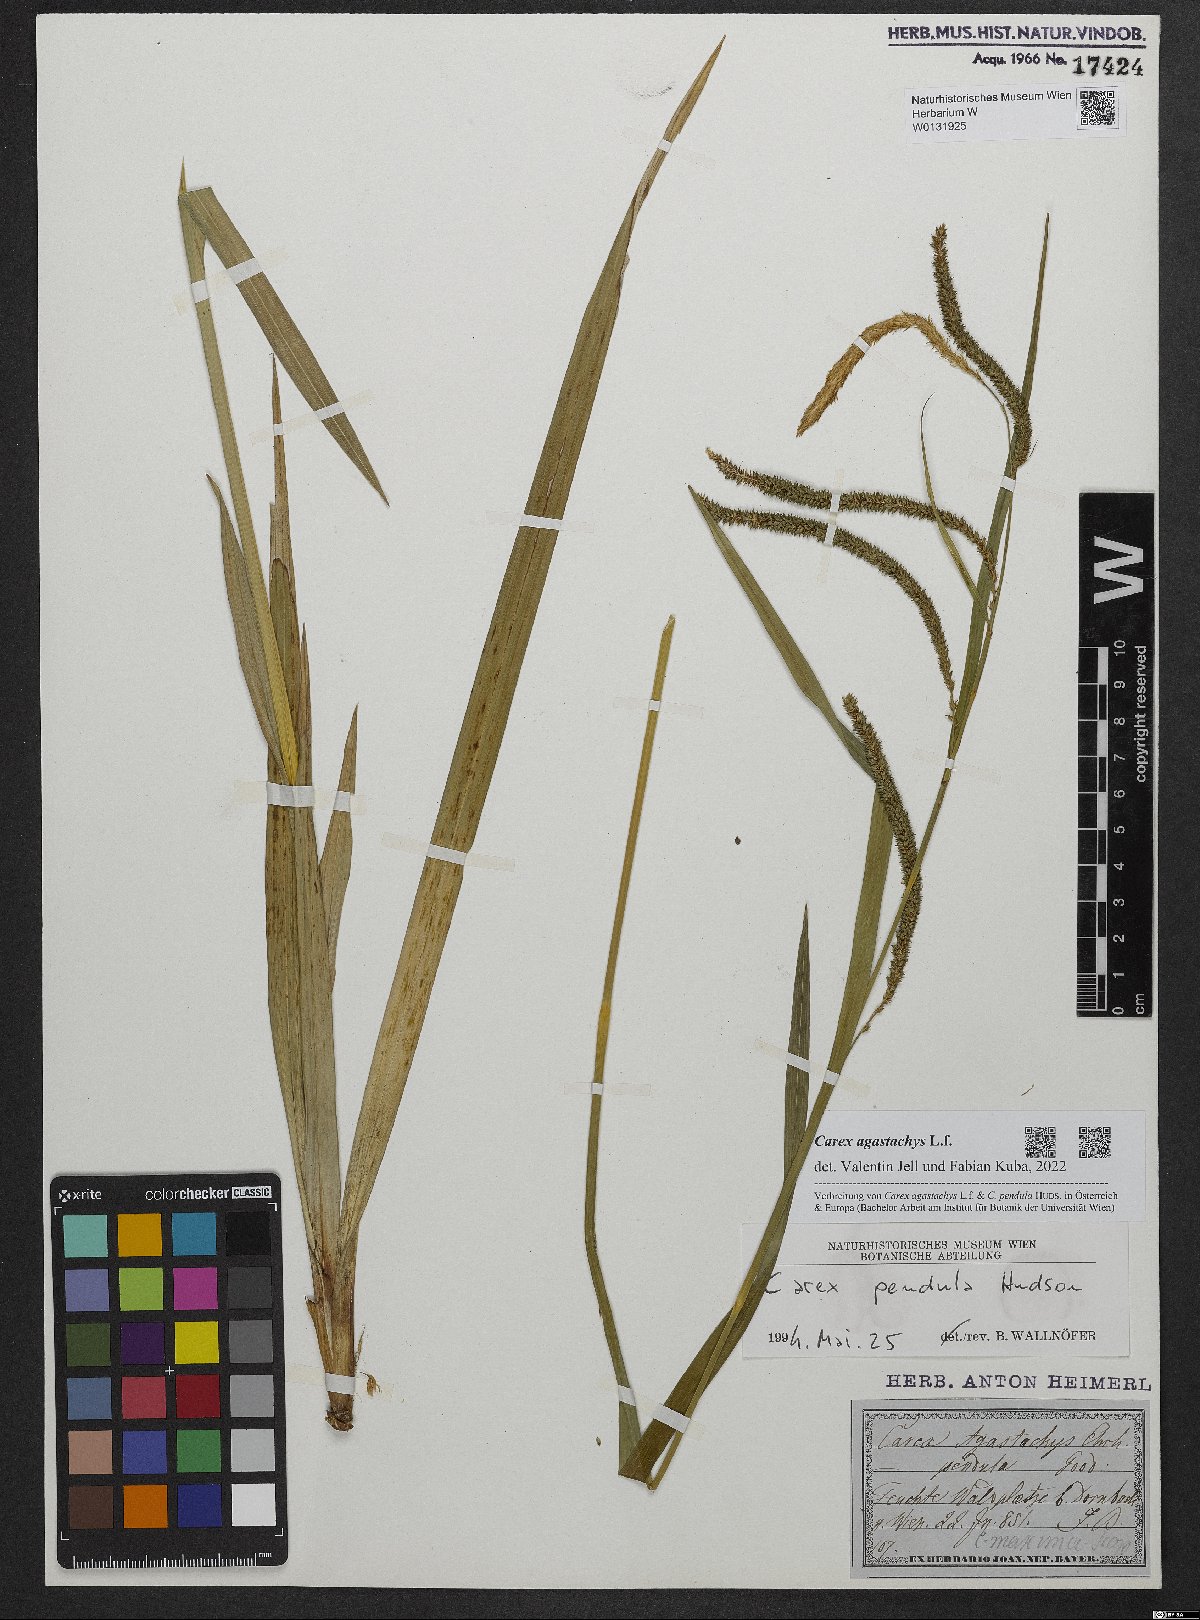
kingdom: Plantae
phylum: Tracheophyta
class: Liliopsida
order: Poales
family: Cyperaceae
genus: Carex
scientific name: Carex agastachys
